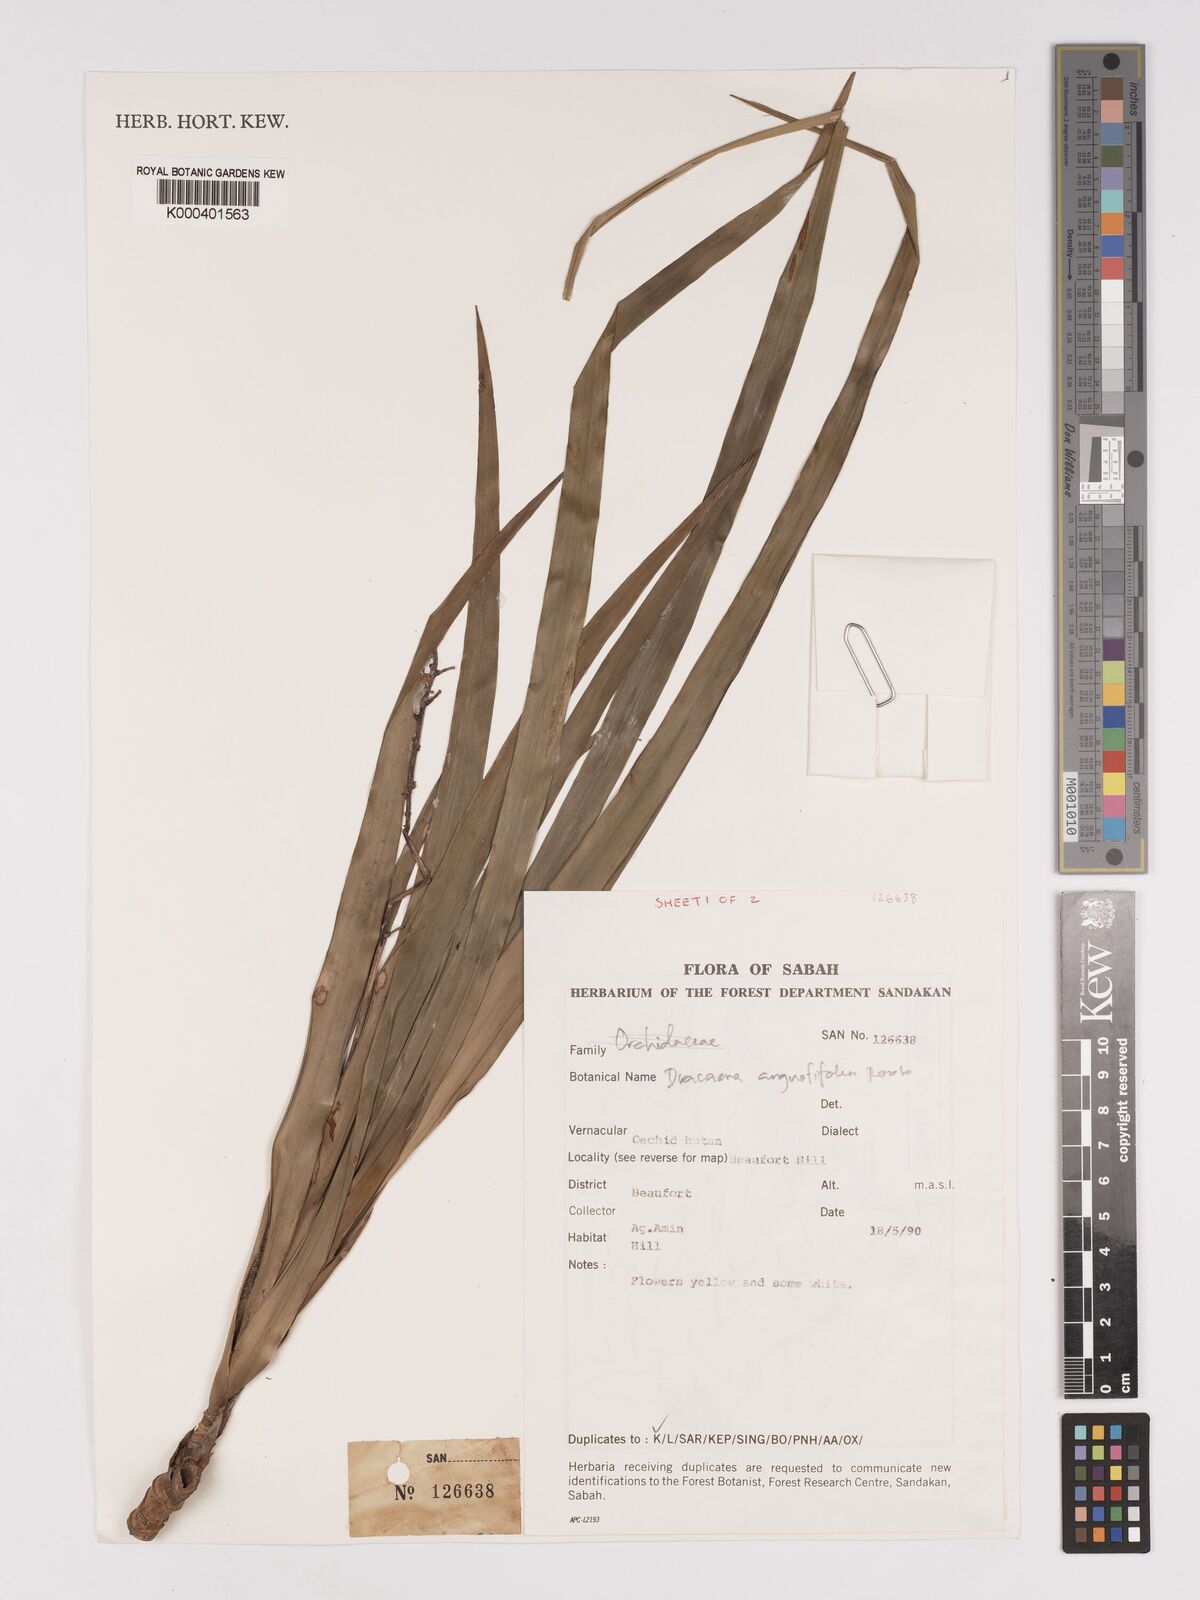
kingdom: Plantae
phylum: Tracheophyta
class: Liliopsida
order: Asparagales
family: Asparagaceae
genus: Dracaena
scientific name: Dracaena angustifolia
